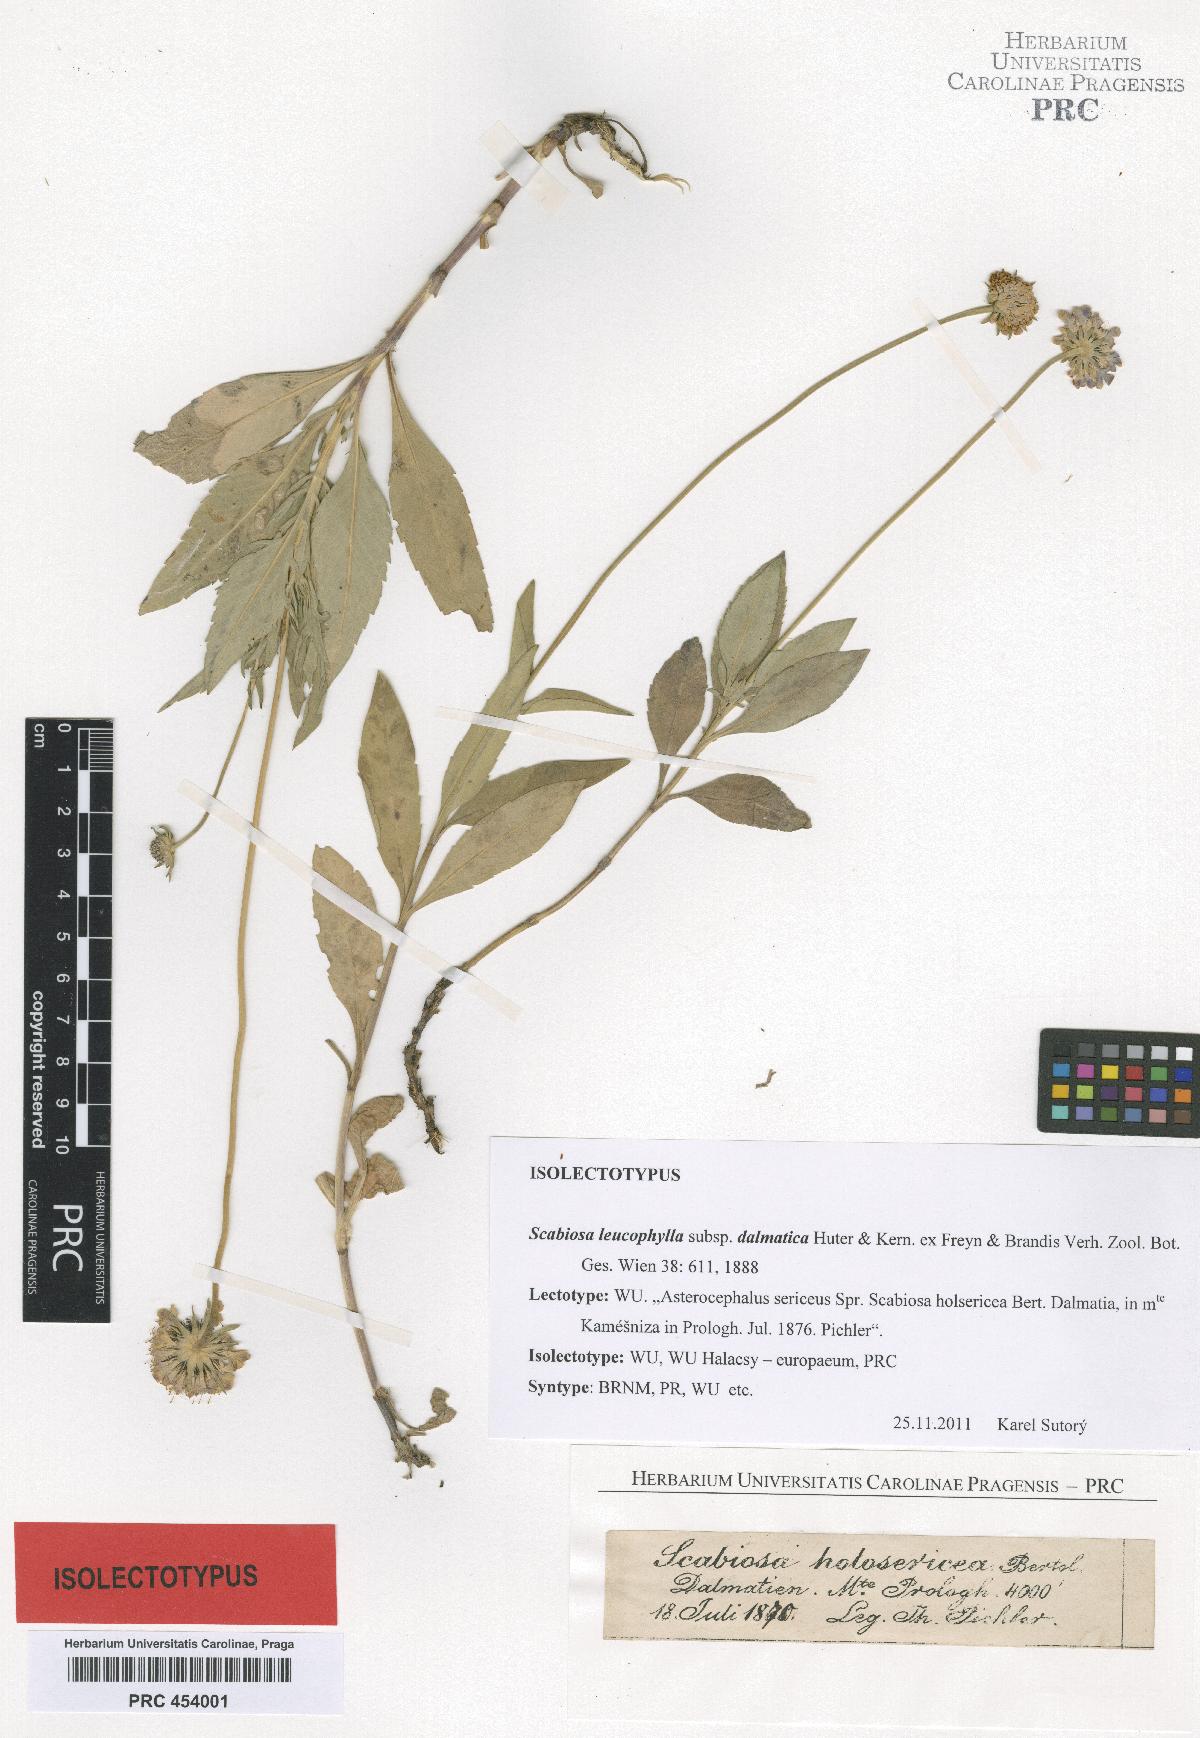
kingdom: Plantae
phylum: Tracheophyta
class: Magnoliopsida
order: Dipsacales
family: Caprifoliaceae
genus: Scabiosa
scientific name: Scabiosa cinerea
